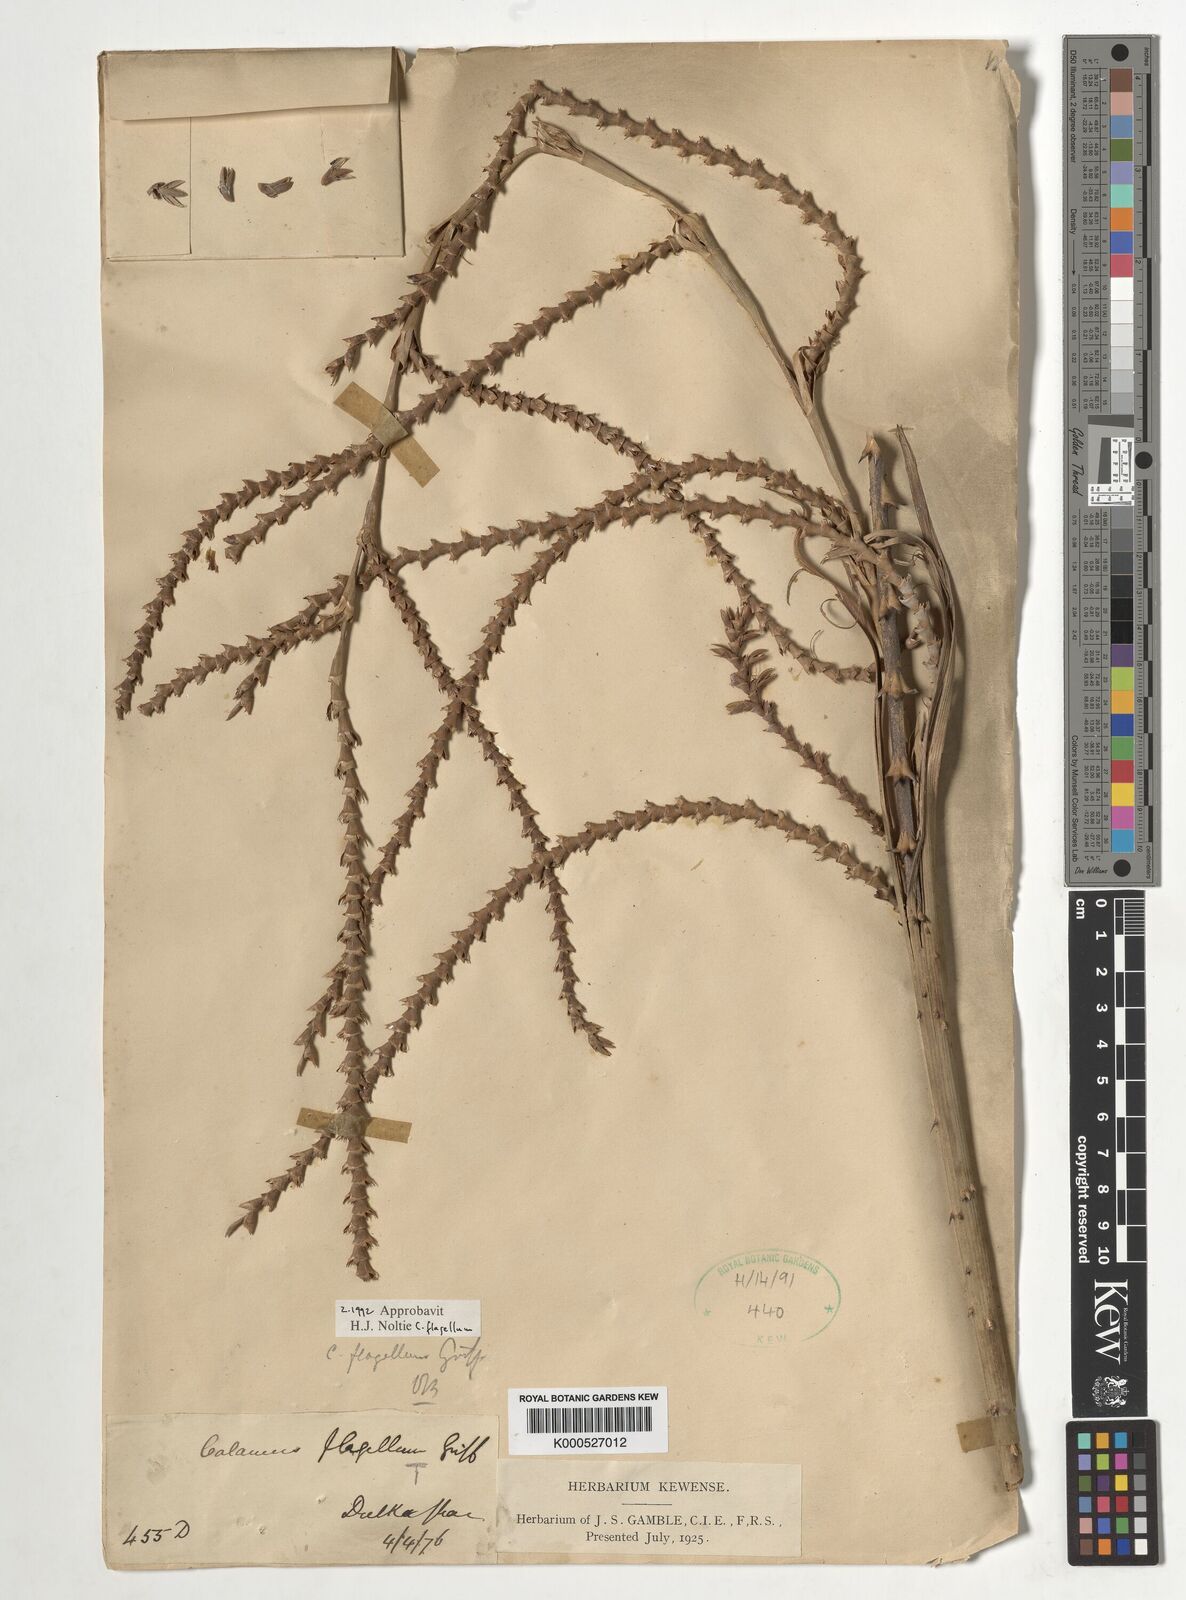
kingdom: Plantae
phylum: Tracheophyta
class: Liliopsida
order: Arecales
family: Arecaceae
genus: Calamus
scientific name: Calamus flagellum
